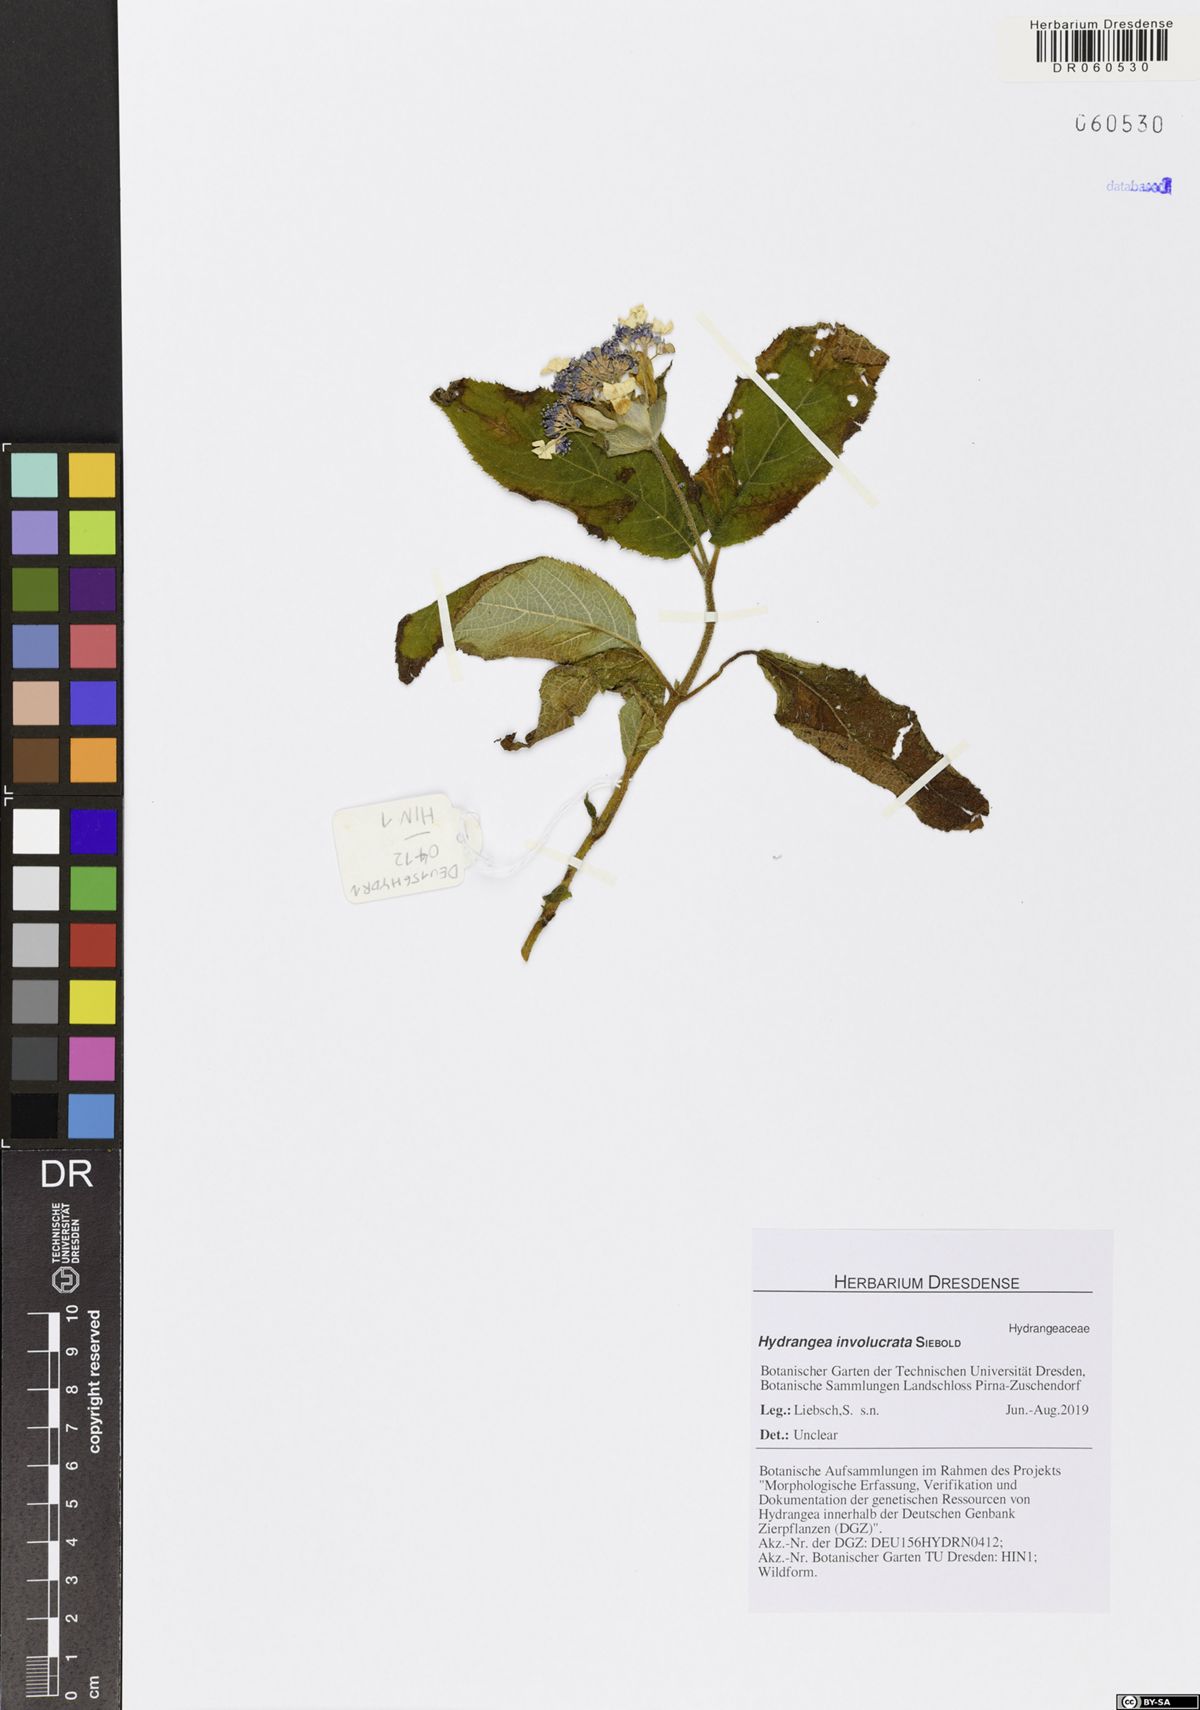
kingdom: Plantae
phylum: Tracheophyta
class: Magnoliopsida
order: Cornales
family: Hydrangeaceae
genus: Hydrangea
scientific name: Hydrangea involucrata
